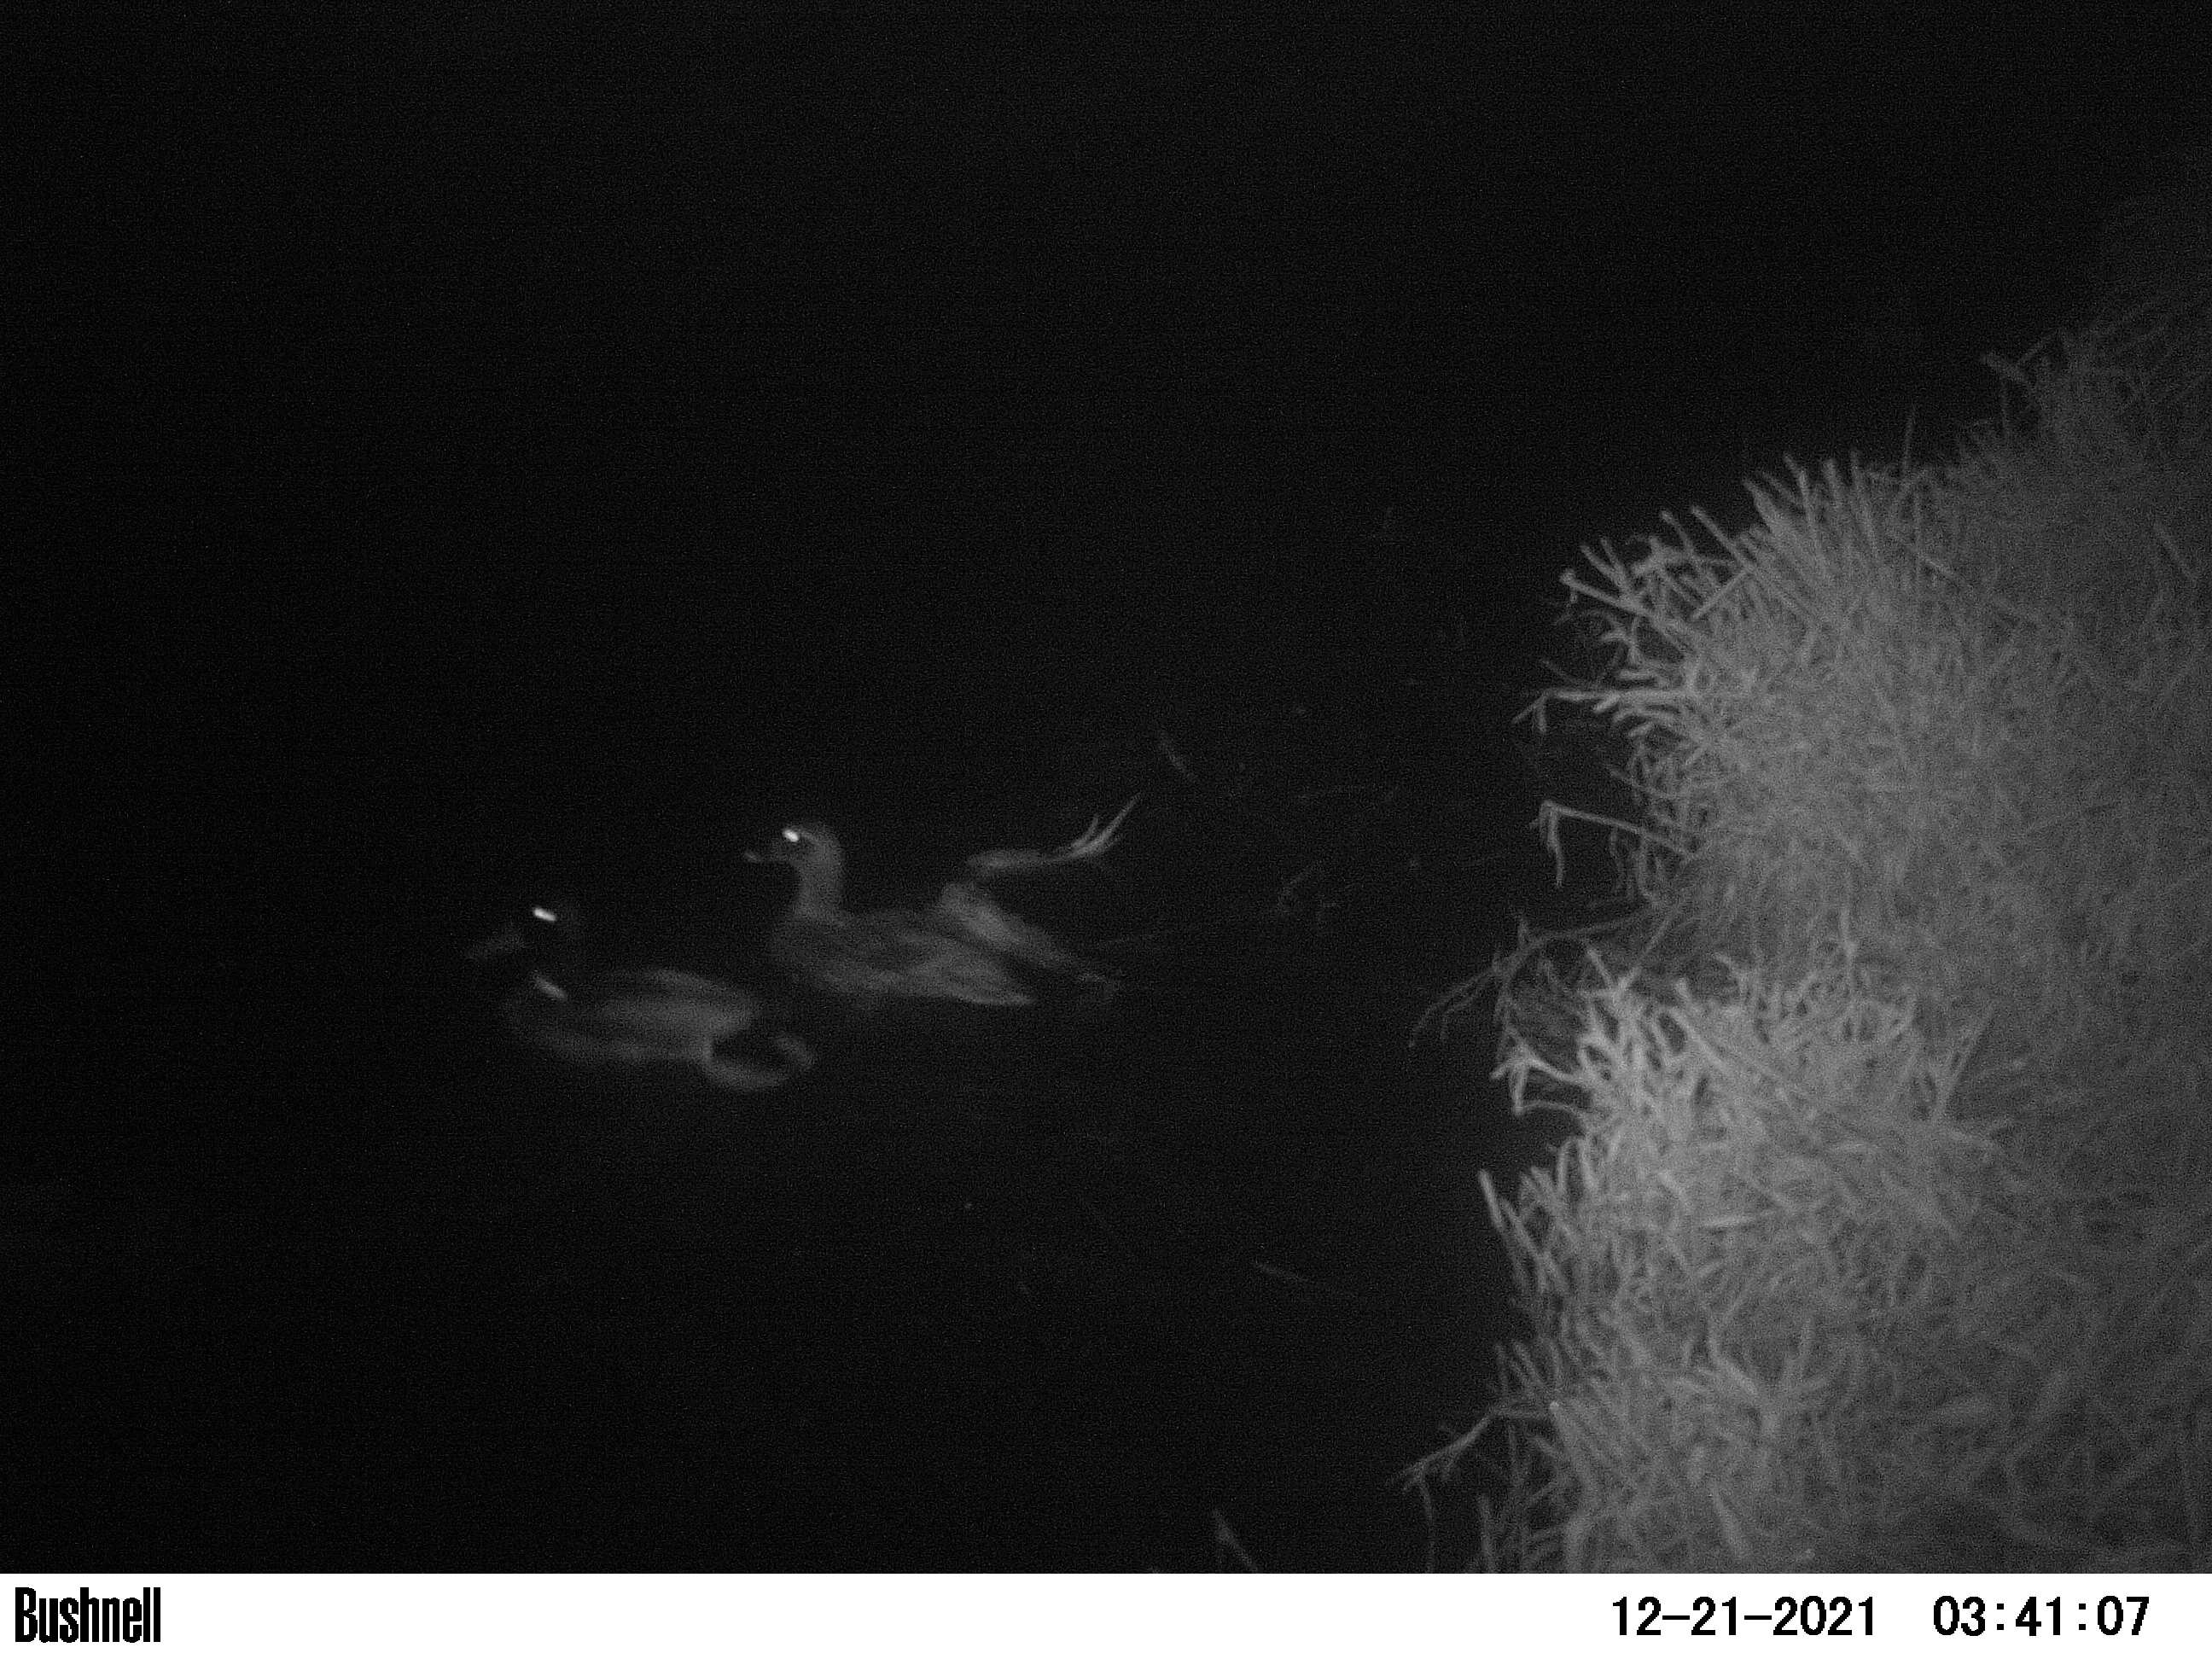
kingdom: Animalia
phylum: Chordata
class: Aves
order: Anseriformes
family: Anatidae
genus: Anas
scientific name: Anas
